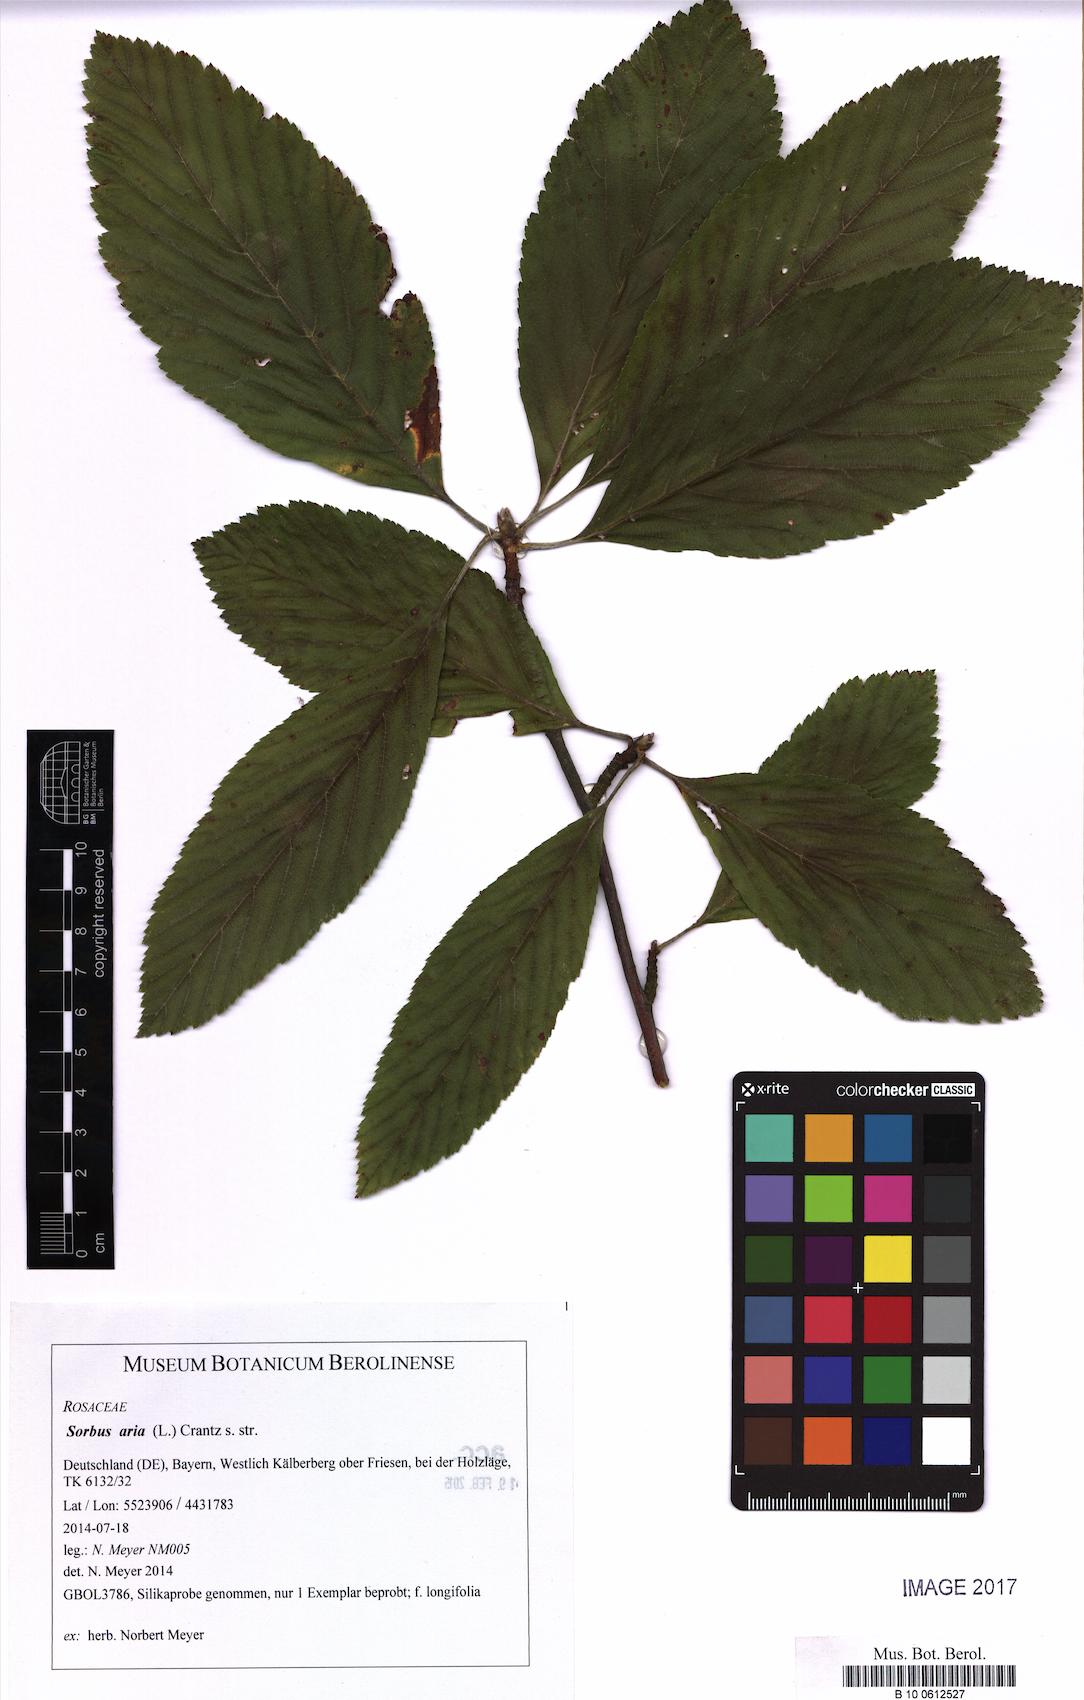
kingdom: Plantae
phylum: Tracheophyta
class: Magnoliopsida
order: Rosales
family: Rosaceae
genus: Aria
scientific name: Aria edulis
